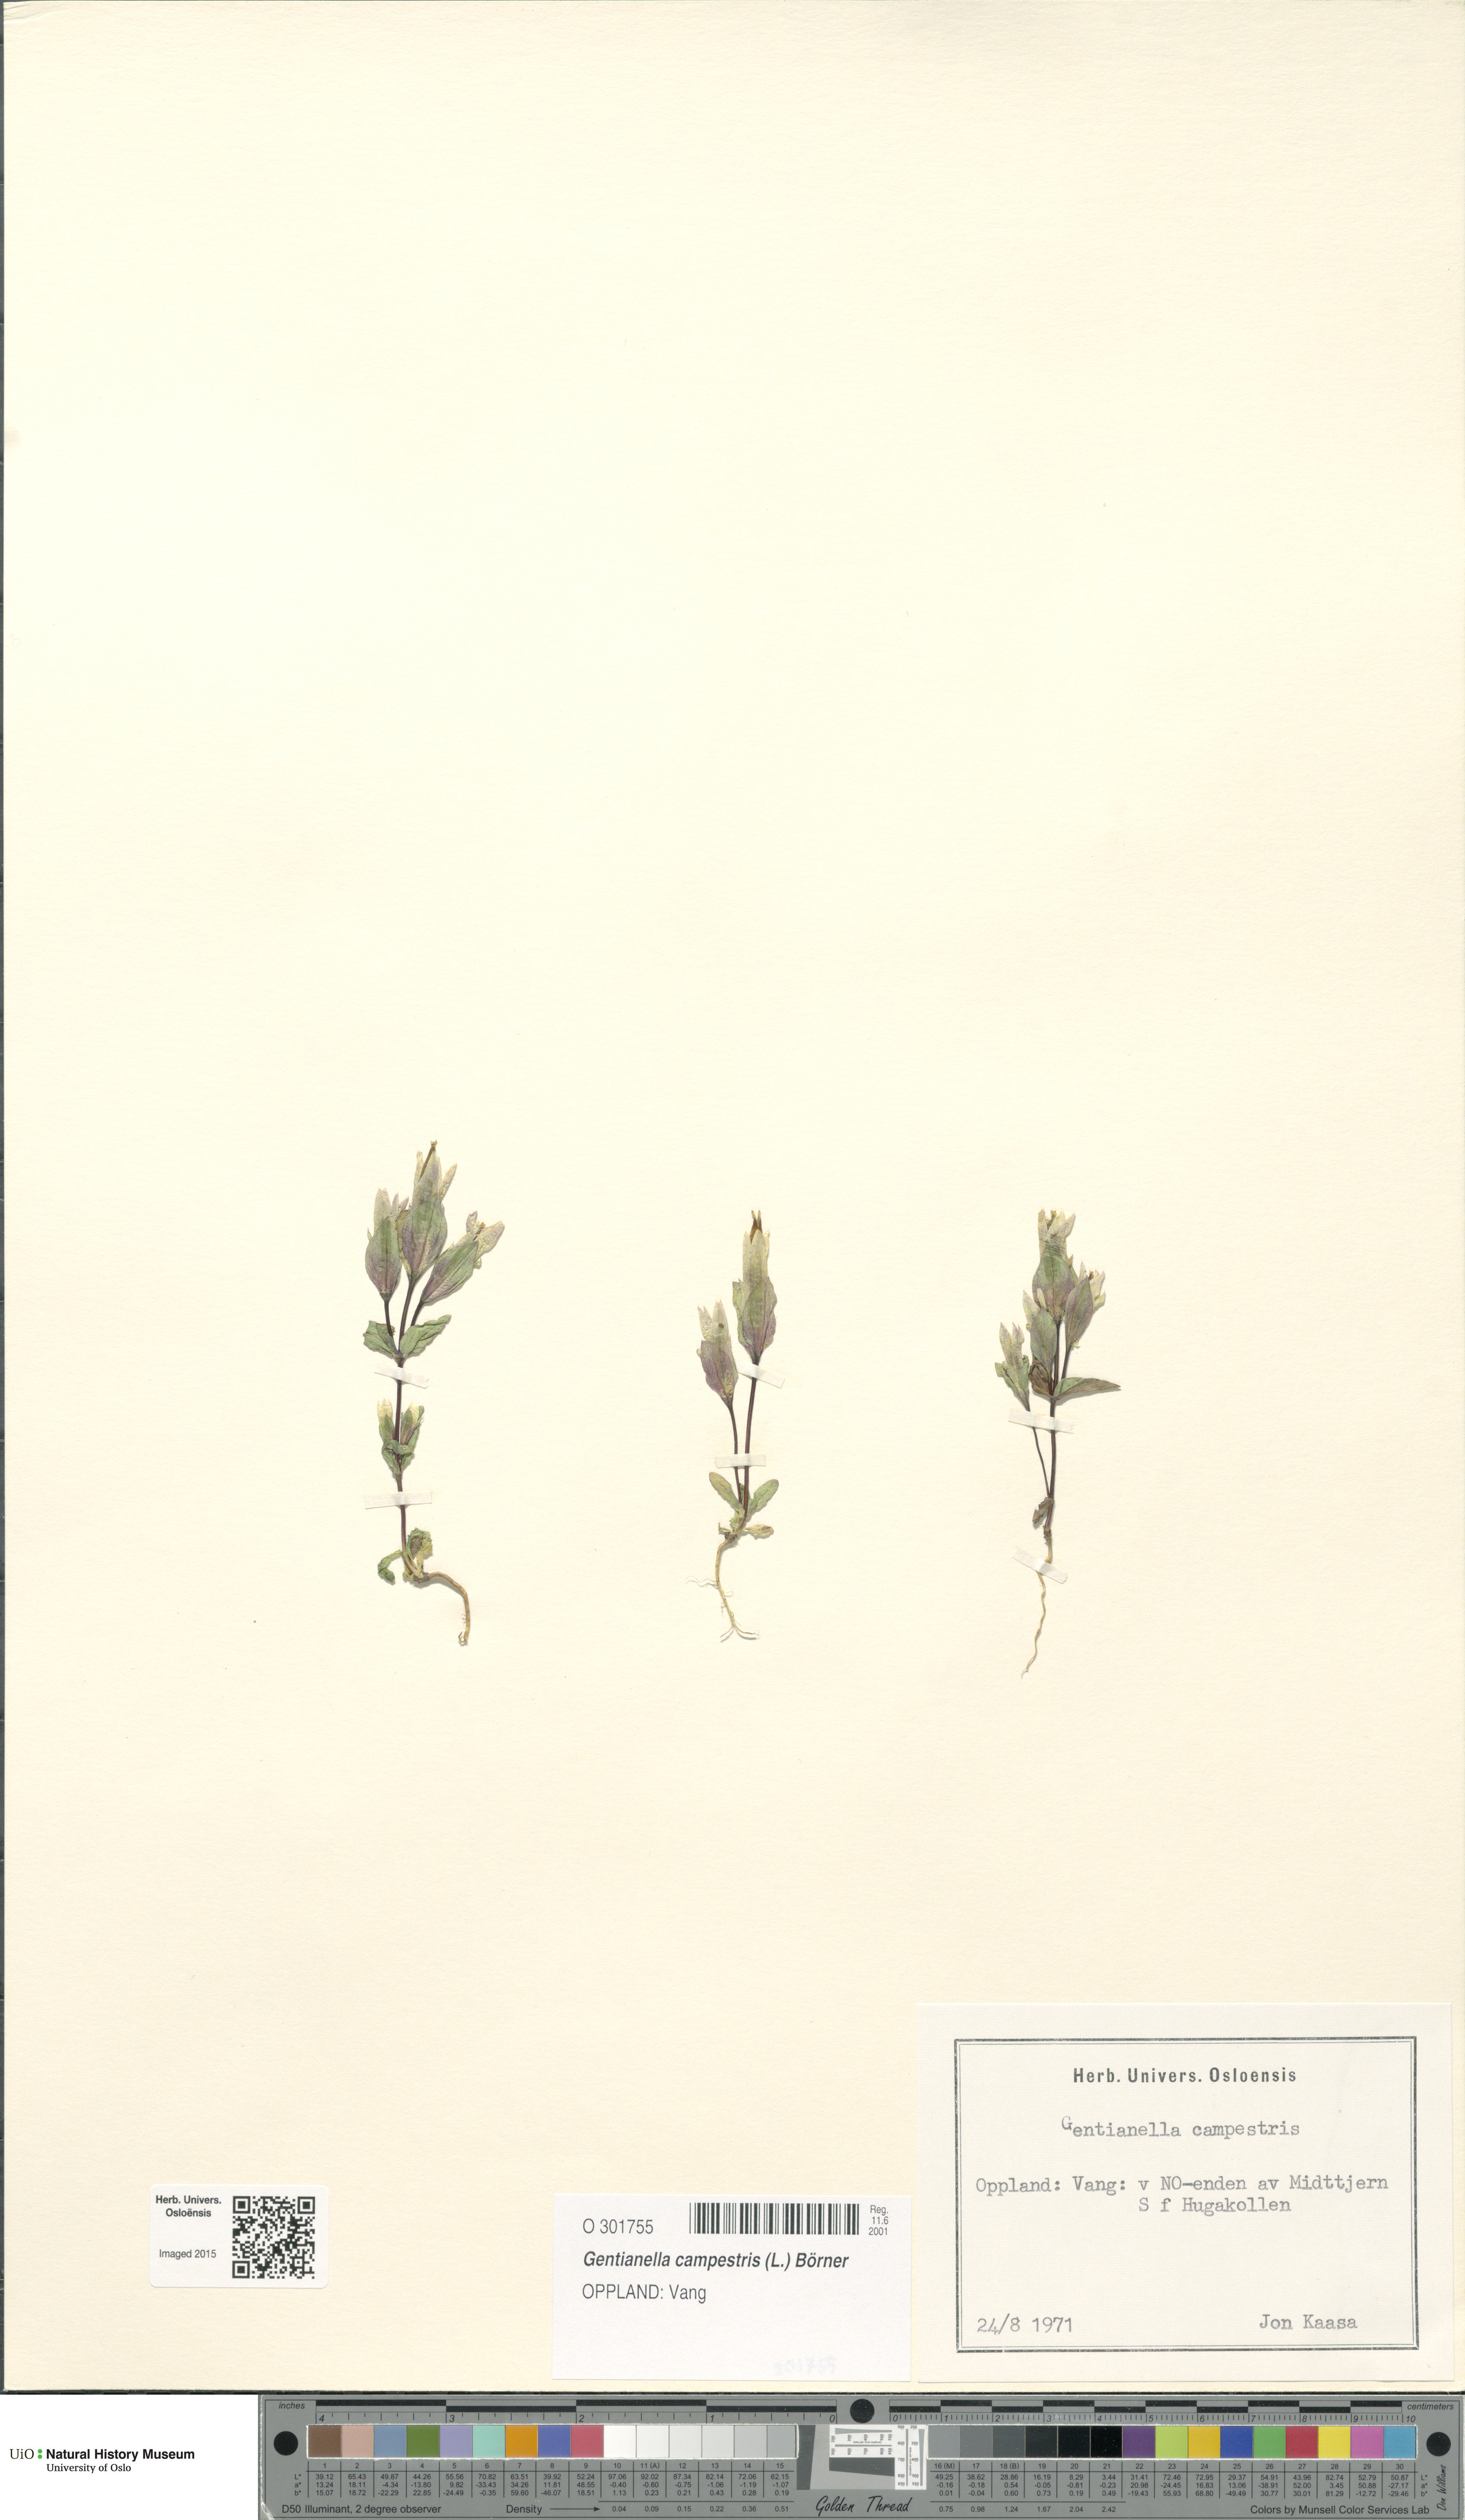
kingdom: Plantae
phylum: Tracheophyta
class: Magnoliopsida
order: Gentianales
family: Gentianaceae
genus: Gentianella
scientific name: Gentianella campestris
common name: Field gentian
